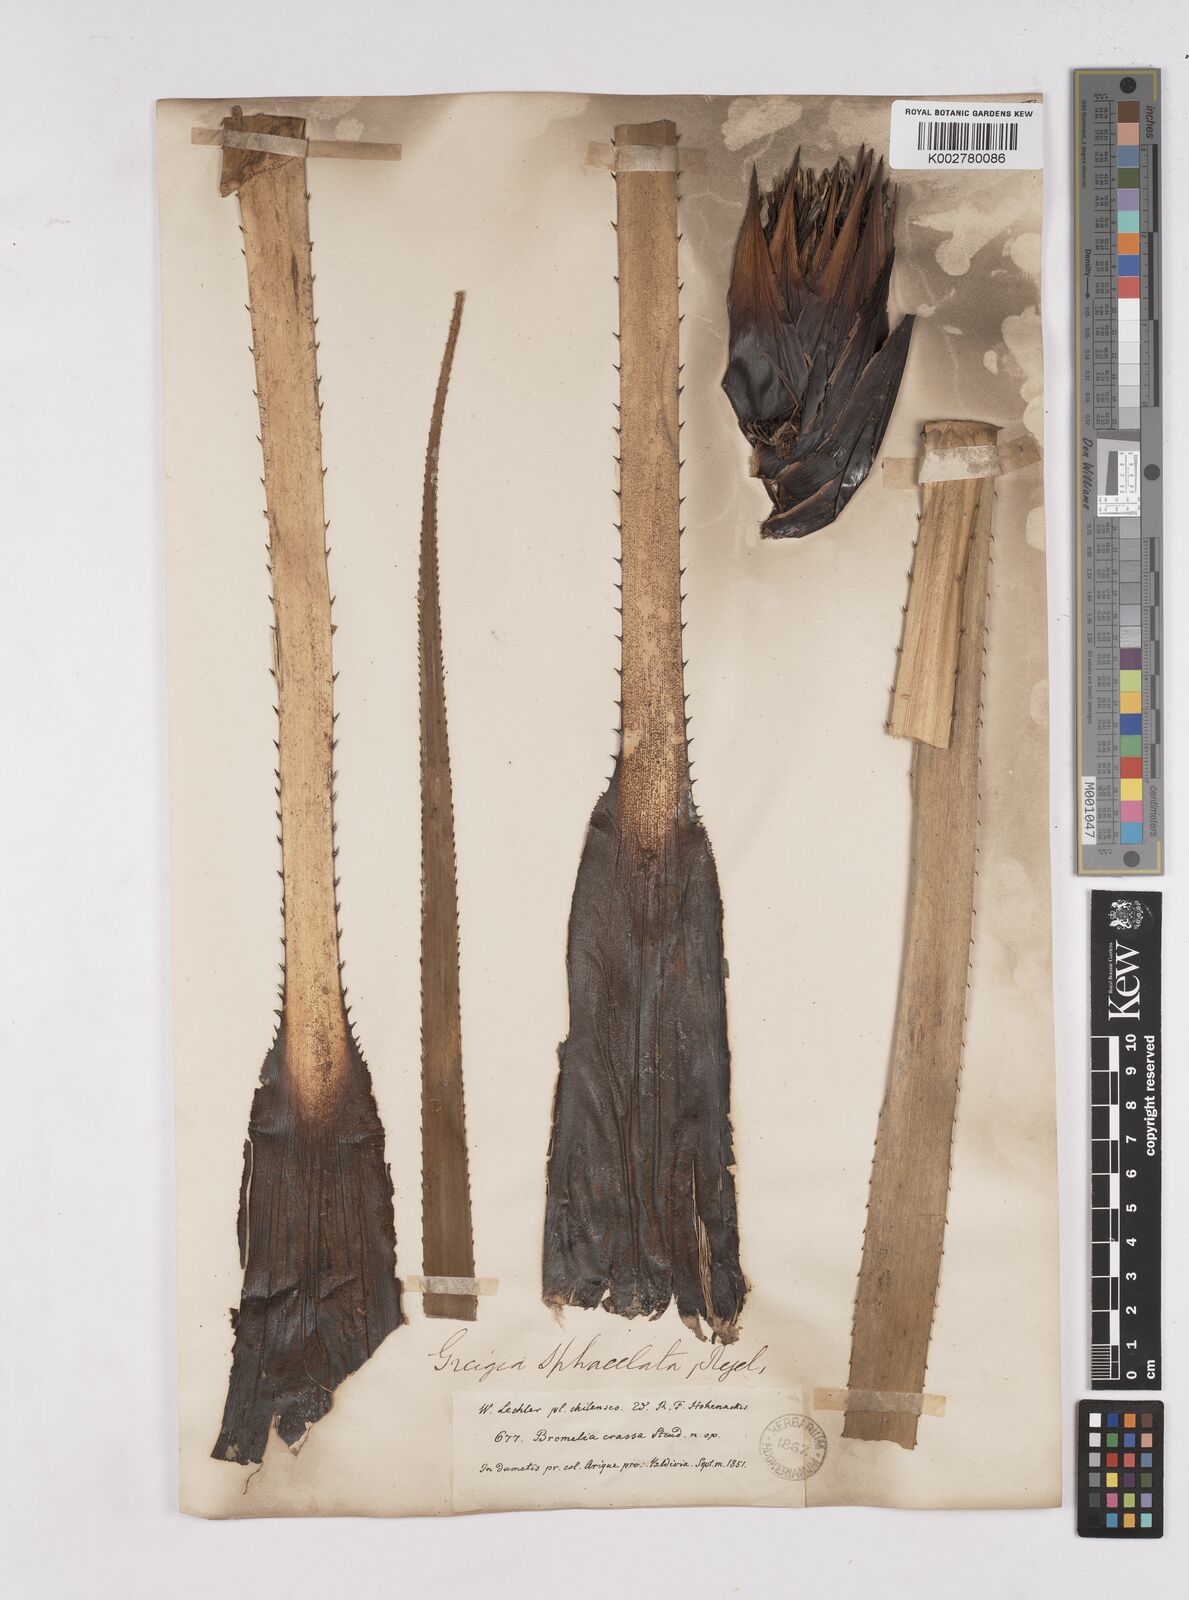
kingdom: Plantae
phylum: Tracheophyta
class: Liliopsida
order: Poales
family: Bromeliaceae
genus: Greigia
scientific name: Greigia sphacelata
